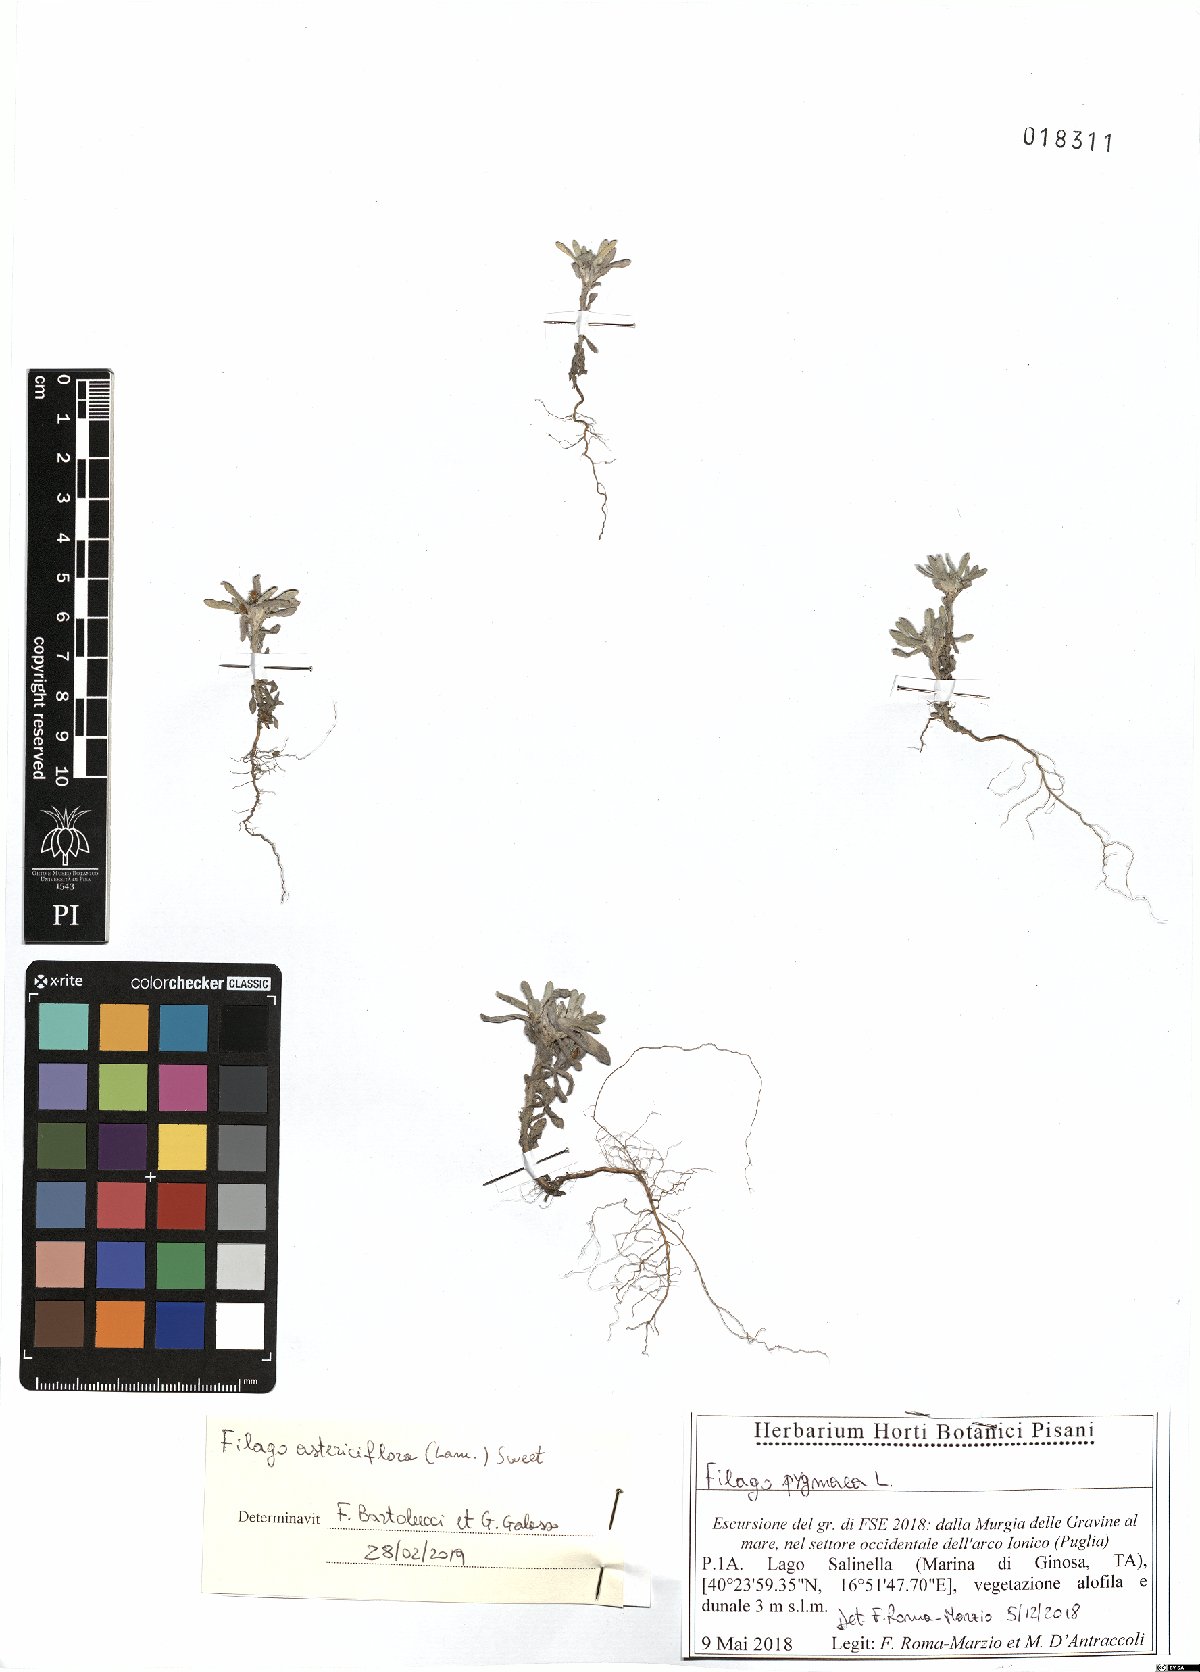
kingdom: Plantae
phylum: Tracheophyta
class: Magnoliopsida
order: Asterales
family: Asteraceae
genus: Filago
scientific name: Filago pygmaea
